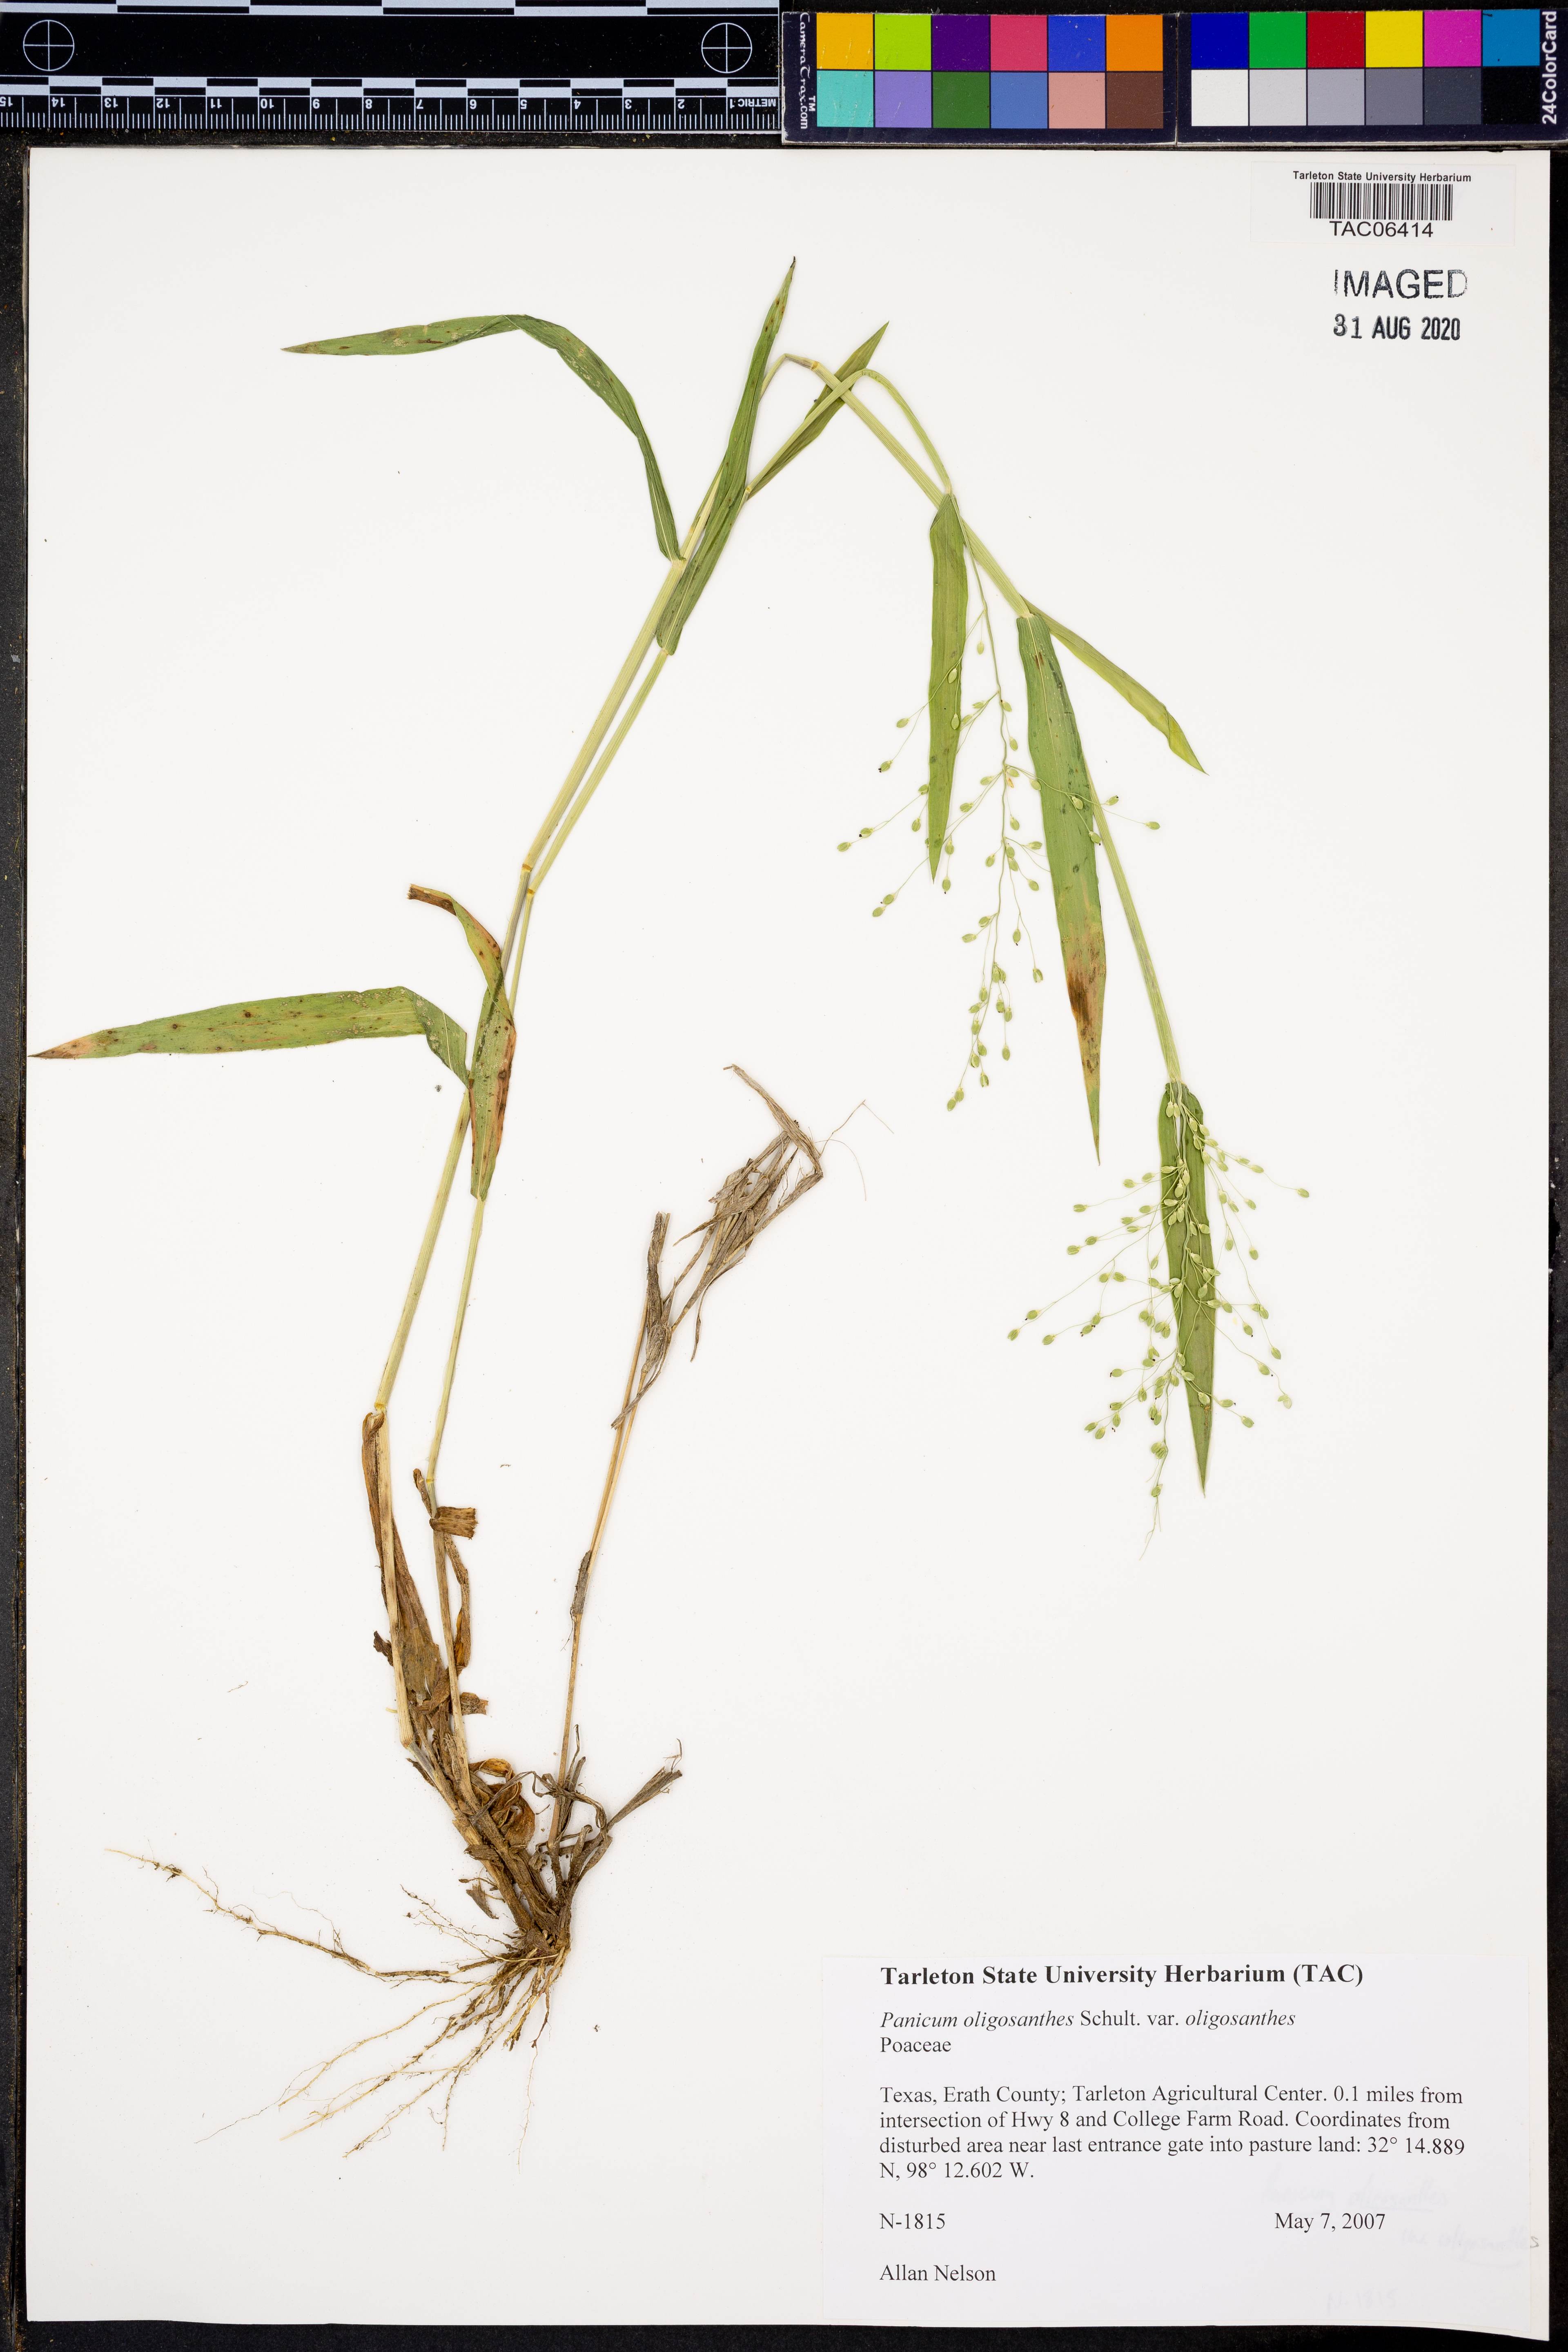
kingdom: Plantae
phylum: Tracheophyta
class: Liliopsida
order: Poales
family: Poaceae
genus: Dichanthelium
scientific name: Dichanthelium oligosanthes
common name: Few-anther obscuregrass
